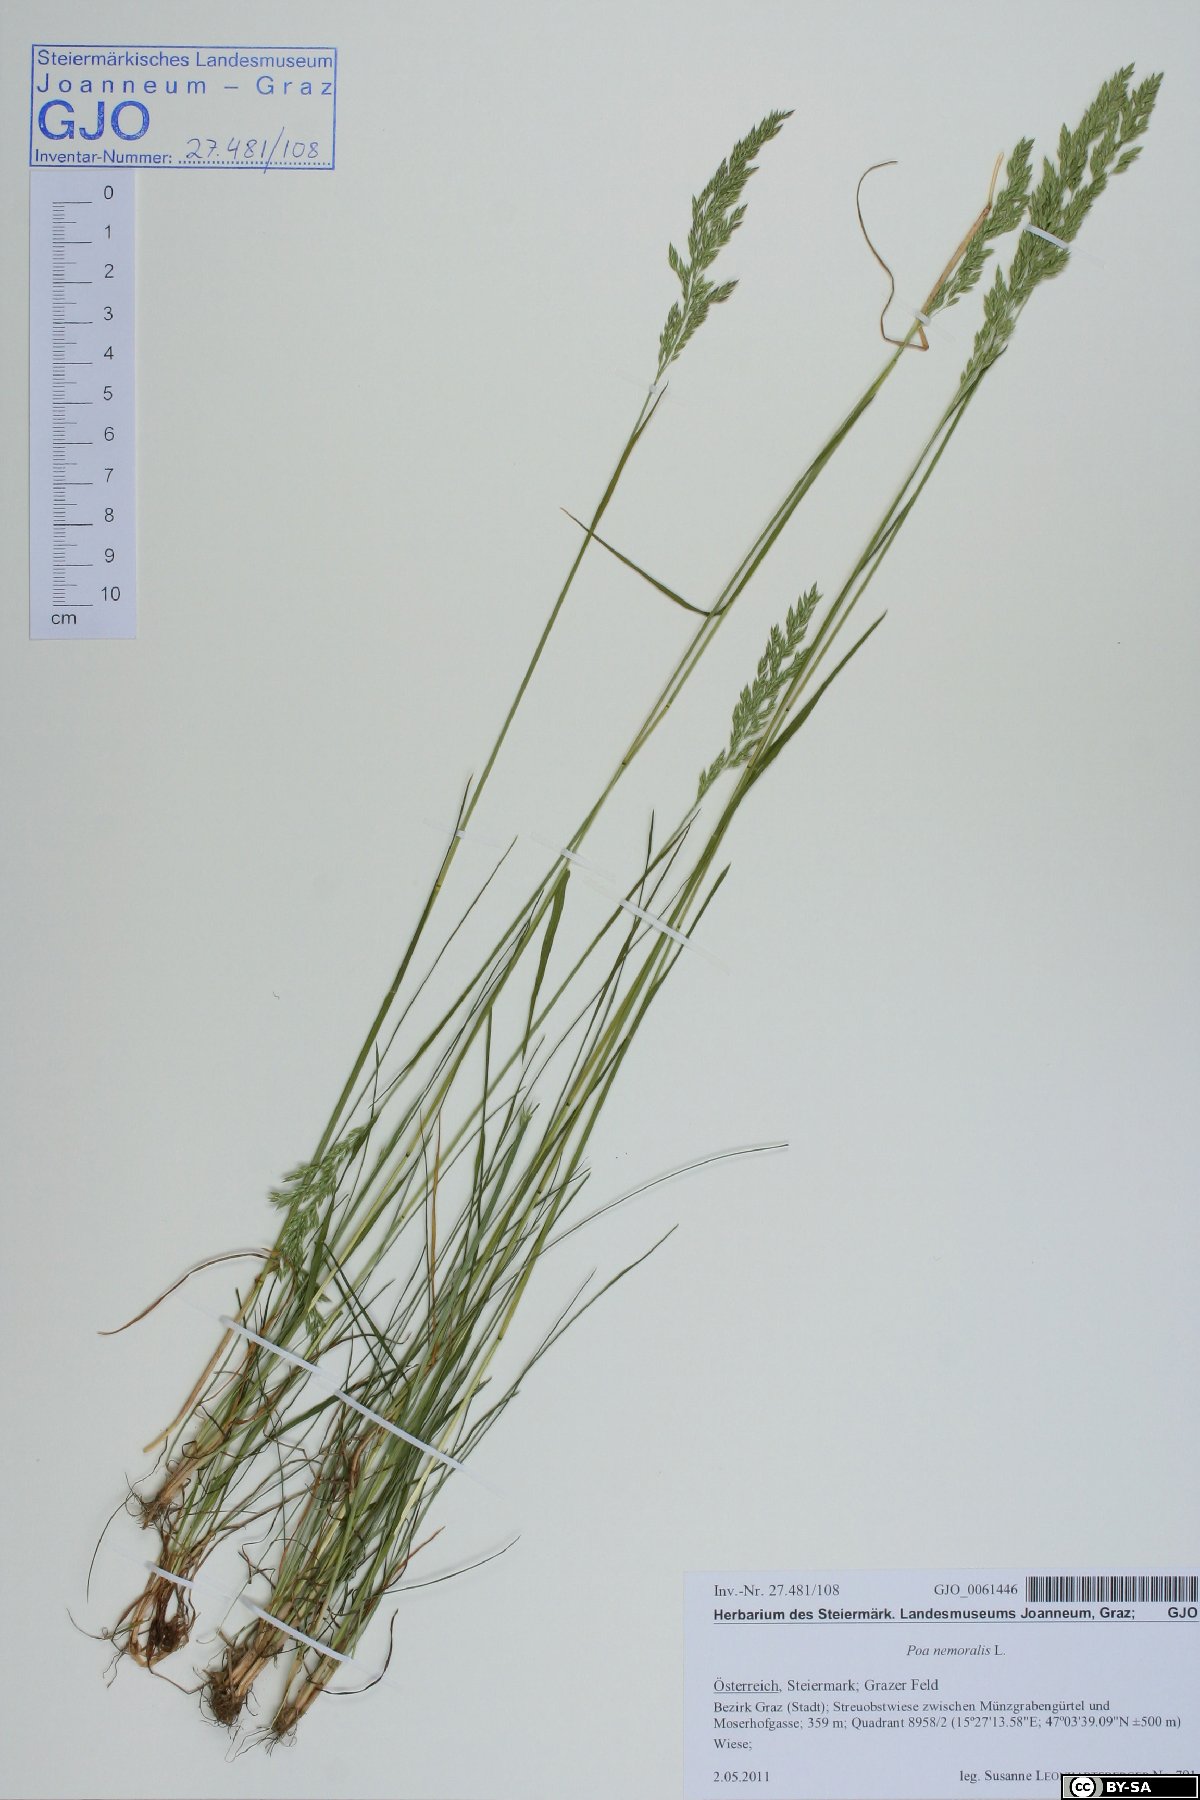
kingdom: Plantae
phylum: Tracheophyta
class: Liliopsida
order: Poales
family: Poaceae
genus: Poa
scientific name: Poa angustifolia
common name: Narrow-leaved meadow-grass
